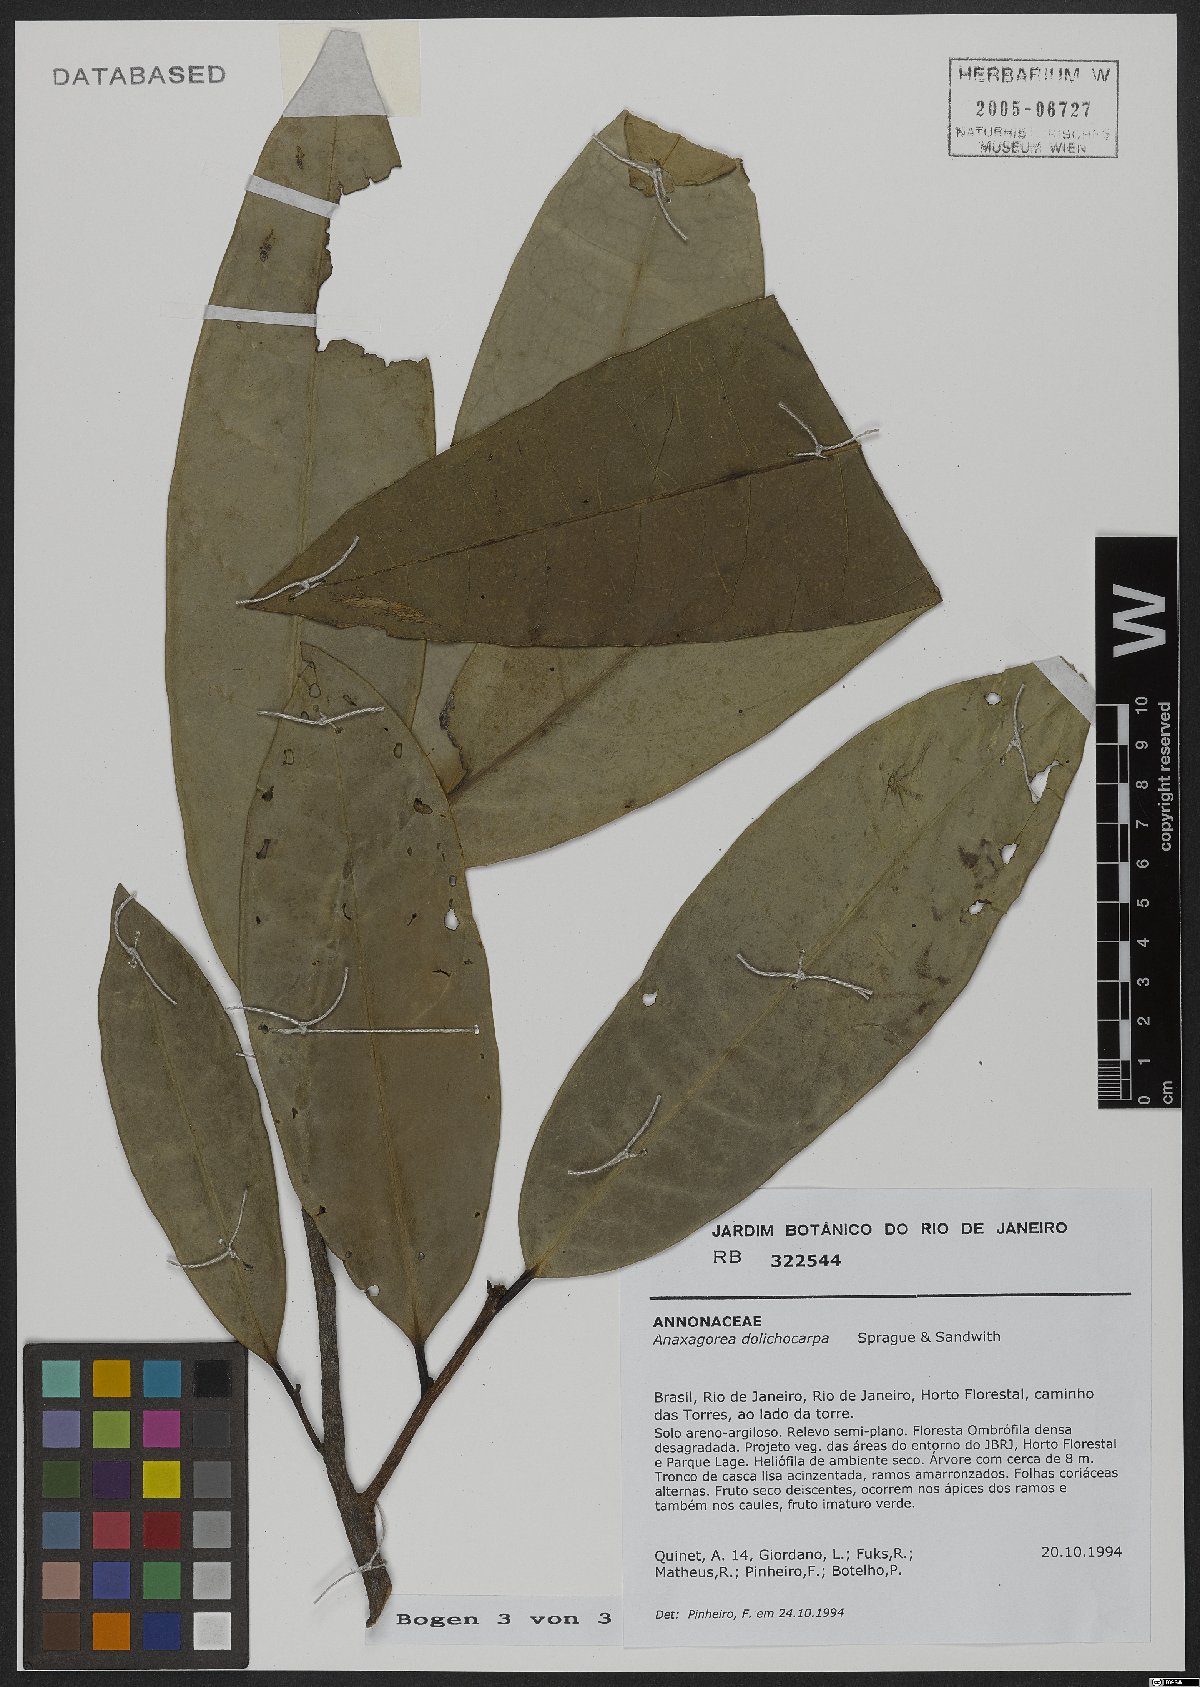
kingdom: Plantae
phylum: Tracheophyta
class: Magnoliopsida
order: Magnoliales
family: Annonaceae
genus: Anaxagorea
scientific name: Anaxagorea dolichocarpa
